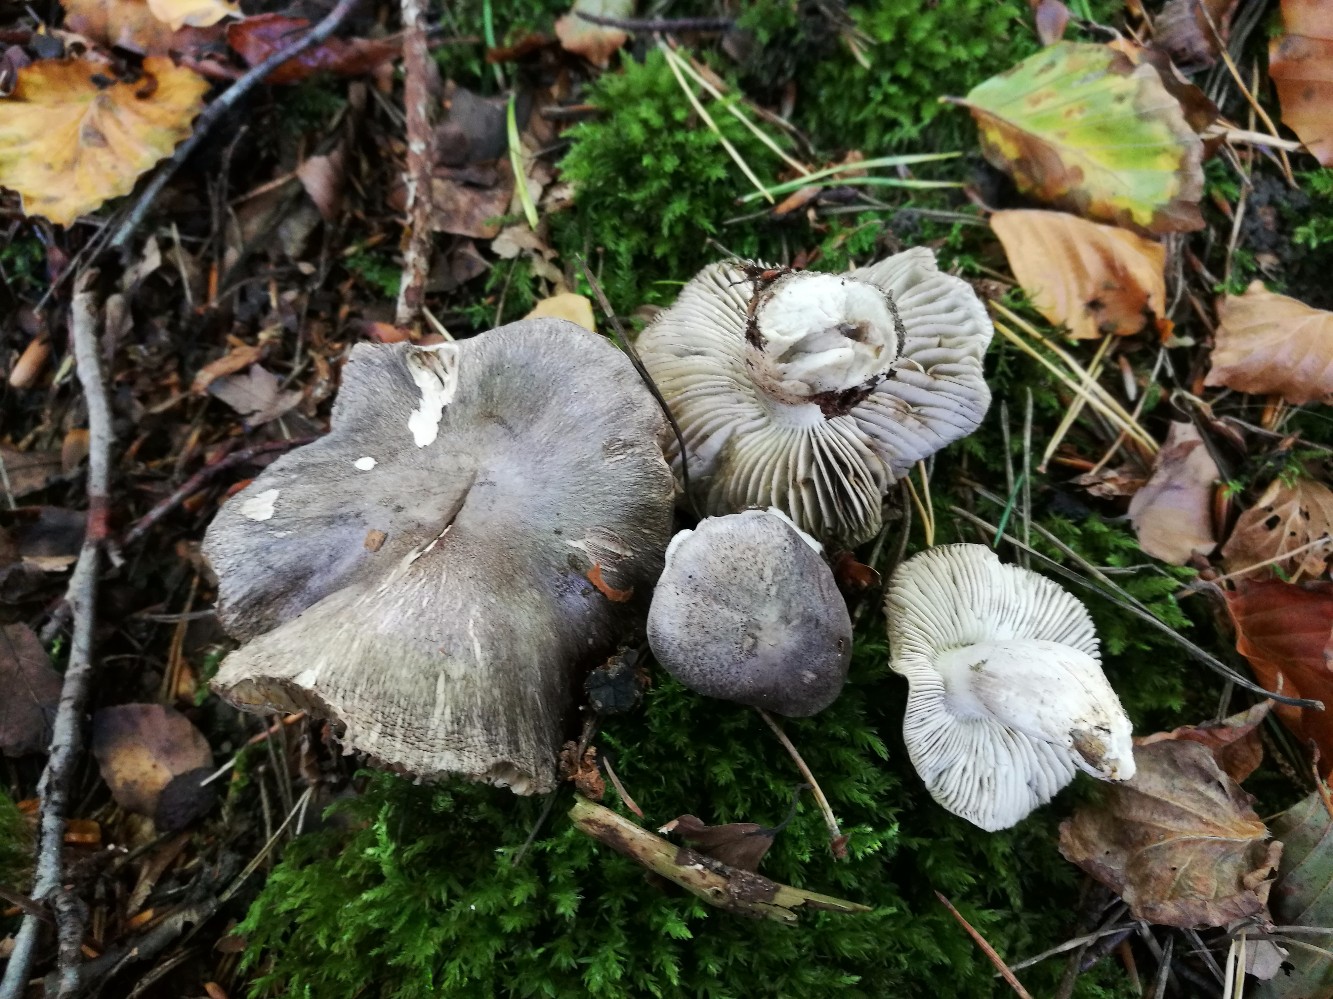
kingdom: Fungi
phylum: Basidiomycota
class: Agaricomycetes
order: Agaricales
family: Tricholomataceae
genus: Tricholoma
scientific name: Tricholoma sciodes
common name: stribet ridderhat
